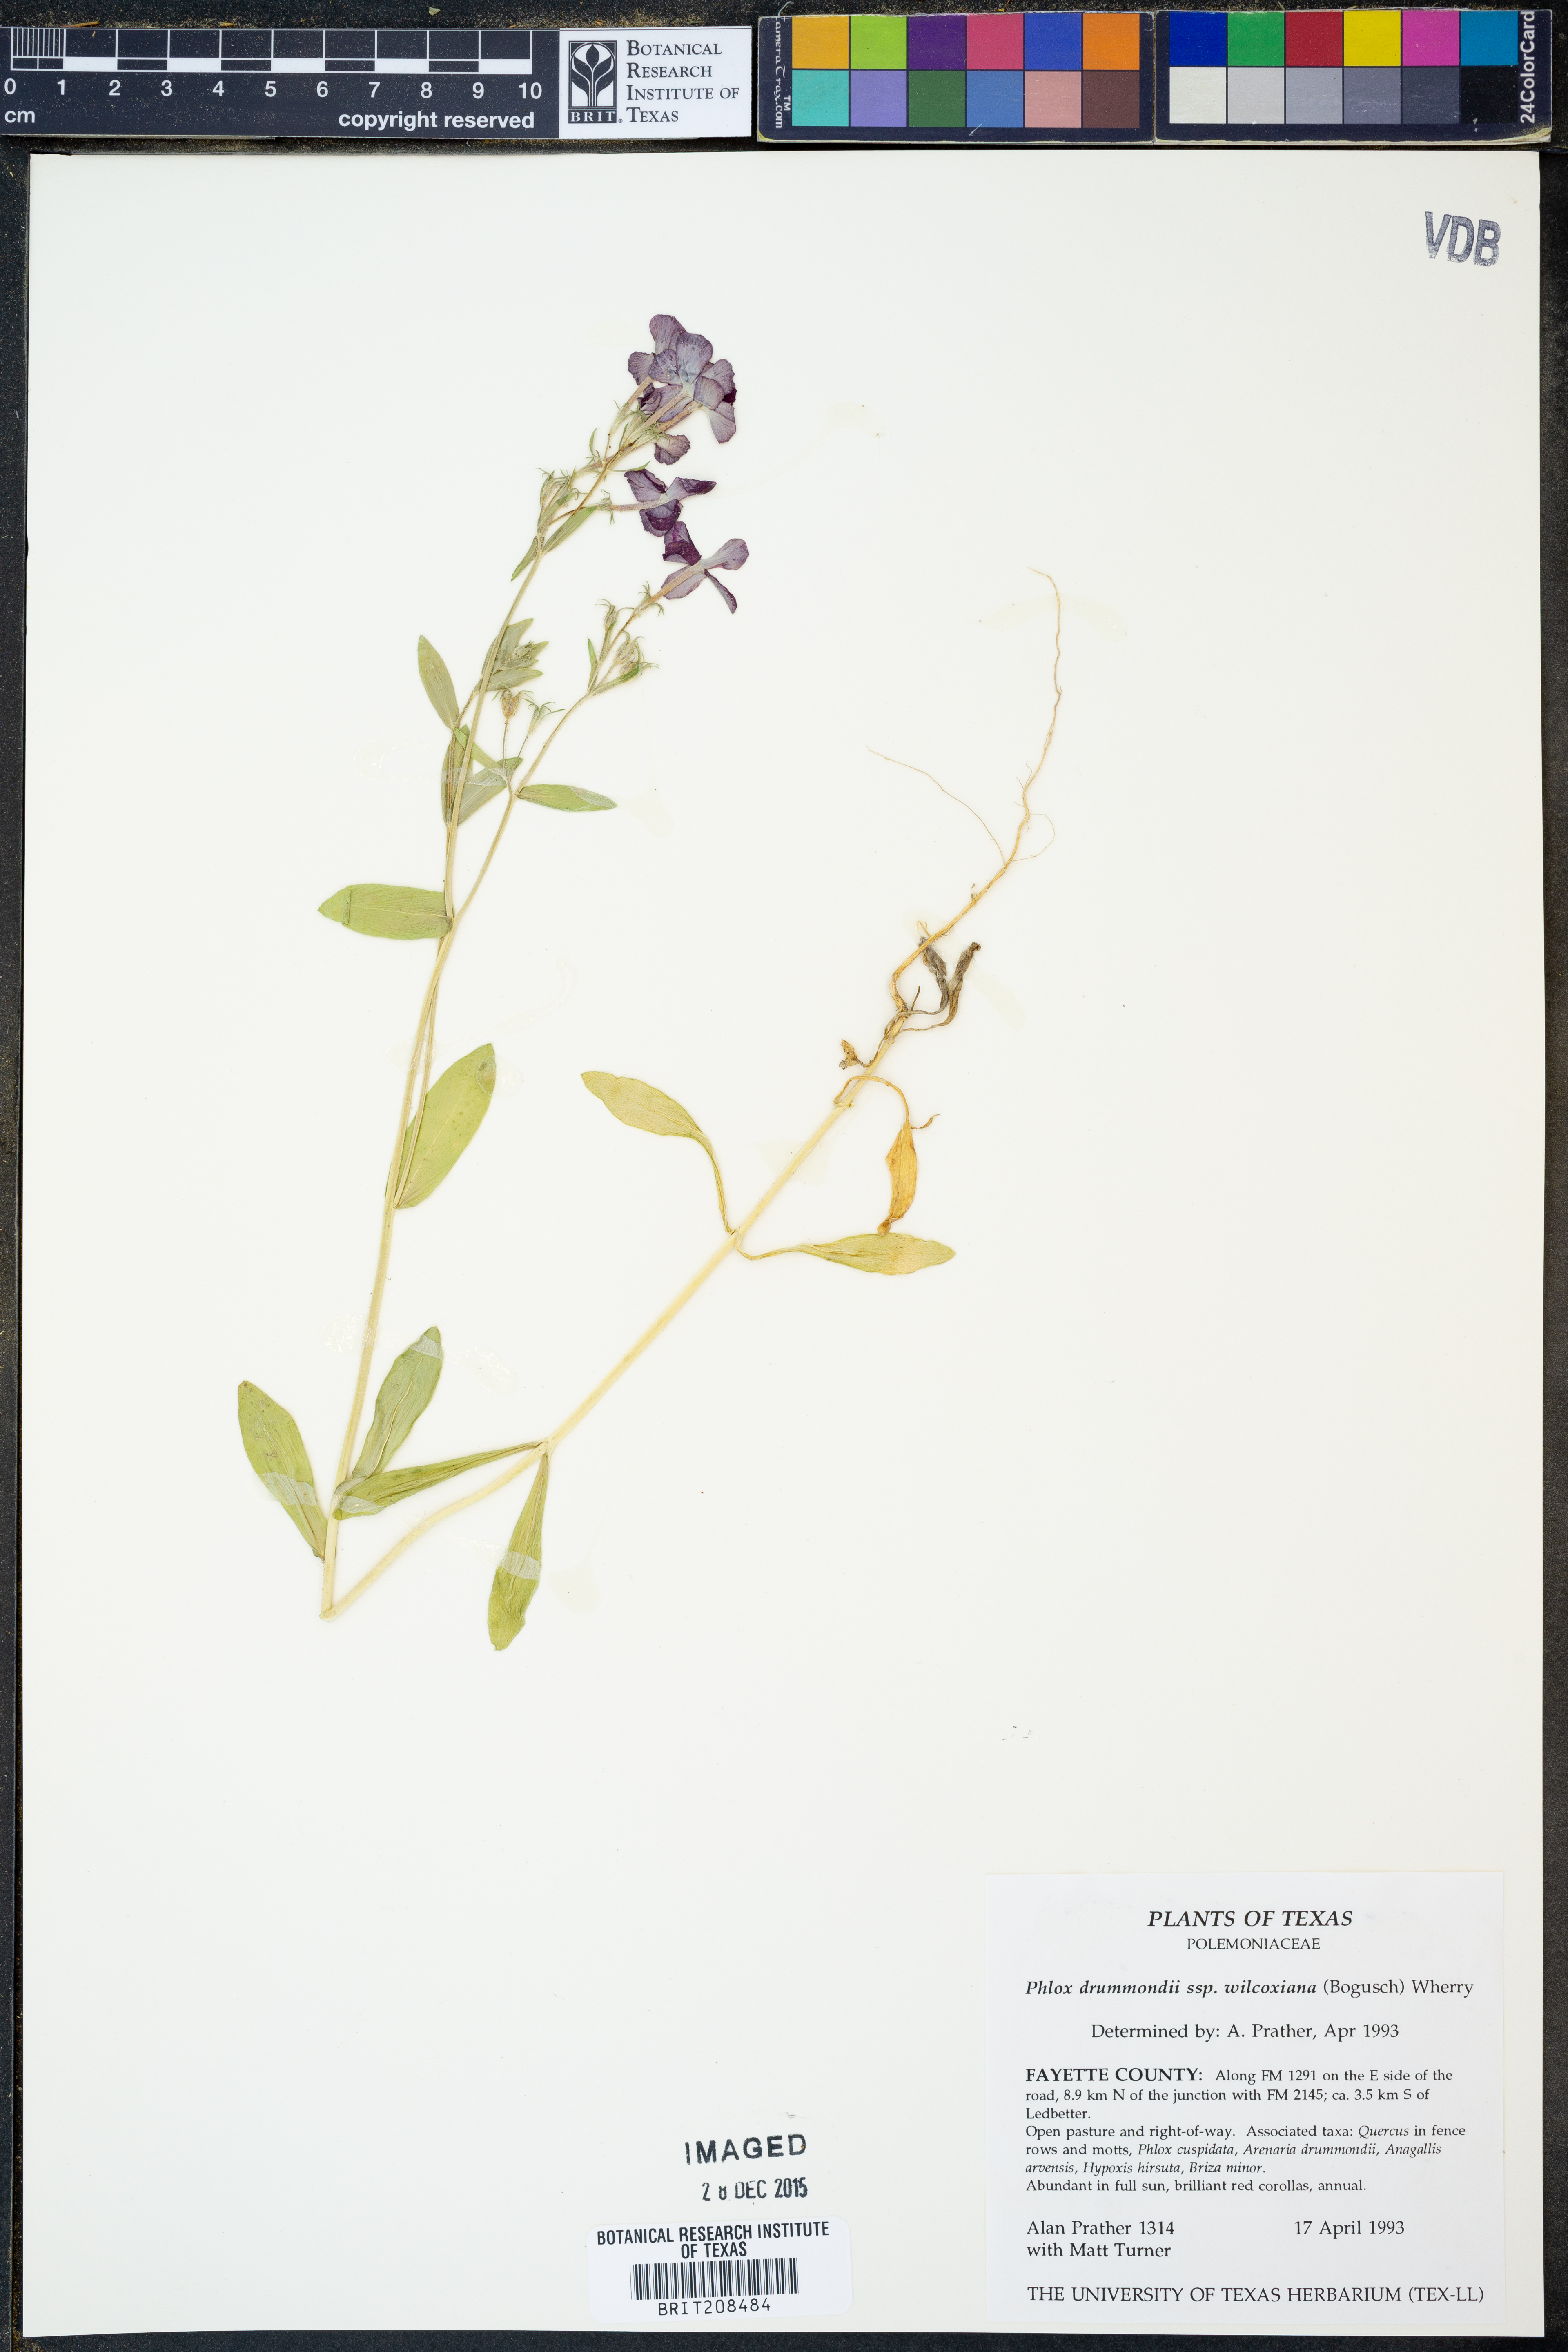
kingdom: Plantae
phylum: Tracheophyta
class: Magnoliopsida
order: Ericales
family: Polemoniaceae
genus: Phlox
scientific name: Phlox drummondii
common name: Drummond's phlox
